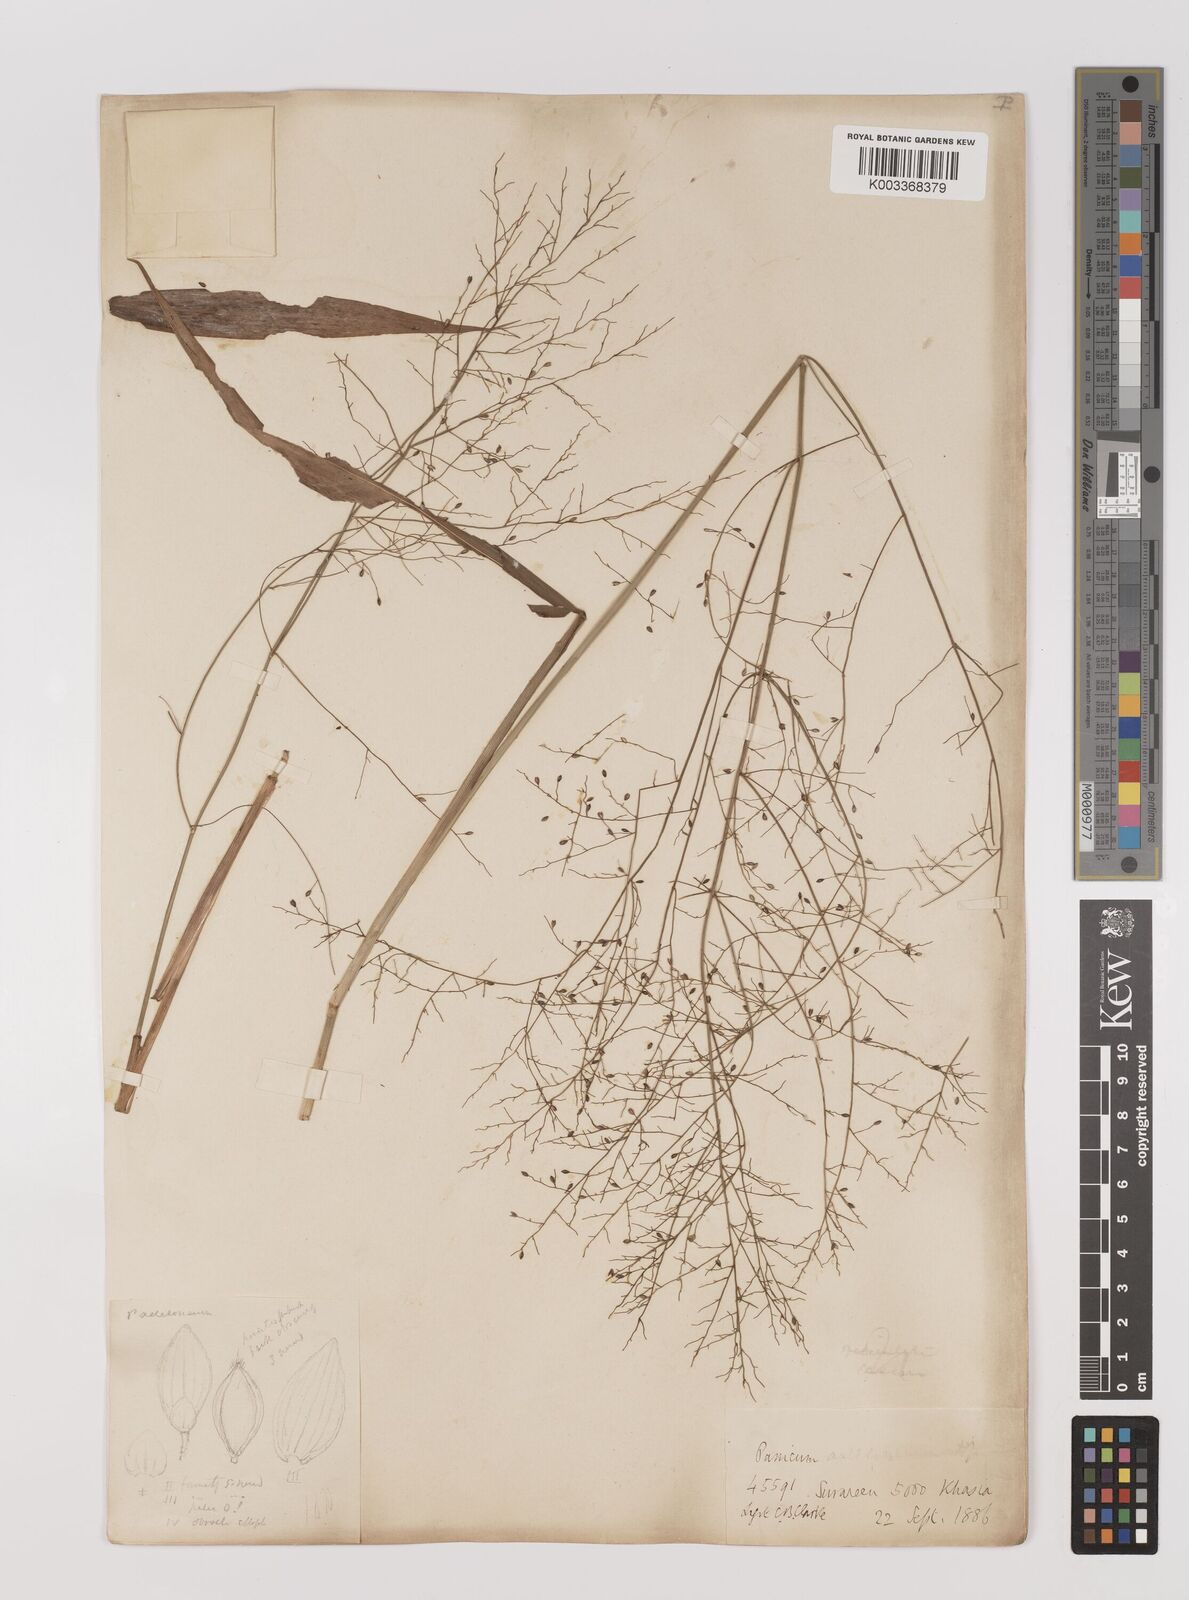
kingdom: Plantae
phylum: Tracheophyta
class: Liliopsida
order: Poales
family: Poaceae
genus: Panicum
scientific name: Panicum sarmentosum
